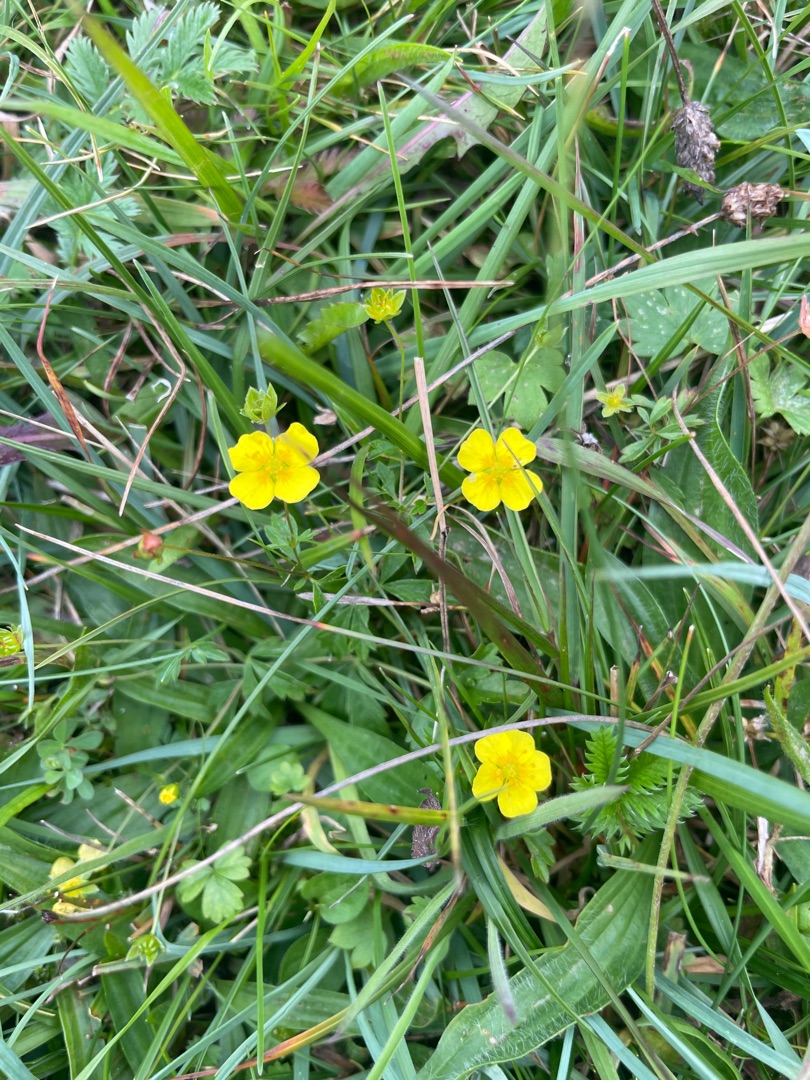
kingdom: Plantae
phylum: Tracheophyta
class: Magnoliopsida
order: Rosales
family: Rosaceae
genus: Potentilla
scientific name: Potentilla erecta
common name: Tormentil
